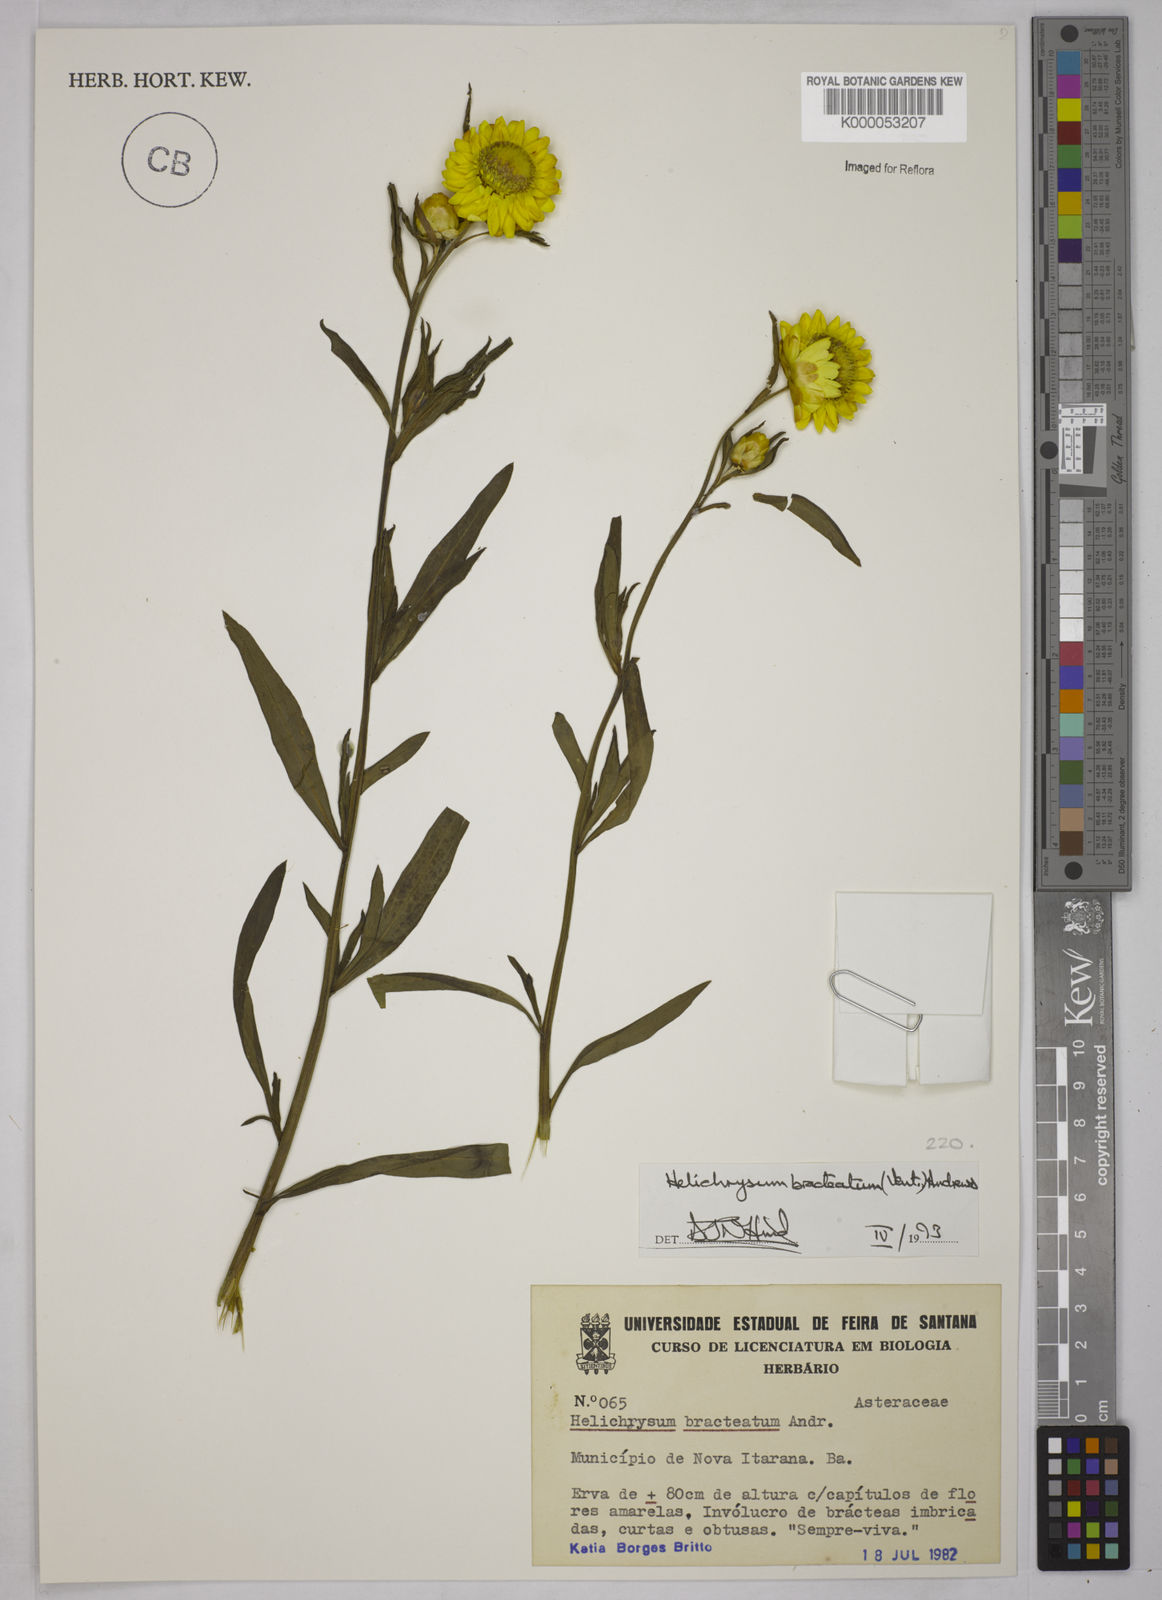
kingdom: Plantae
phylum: Tracheophyta
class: Magnoliopsida
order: Asterales
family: Asteraceae
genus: Xerochrysum
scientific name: Xerochrysum bracteatum
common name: Bracted strawflower
